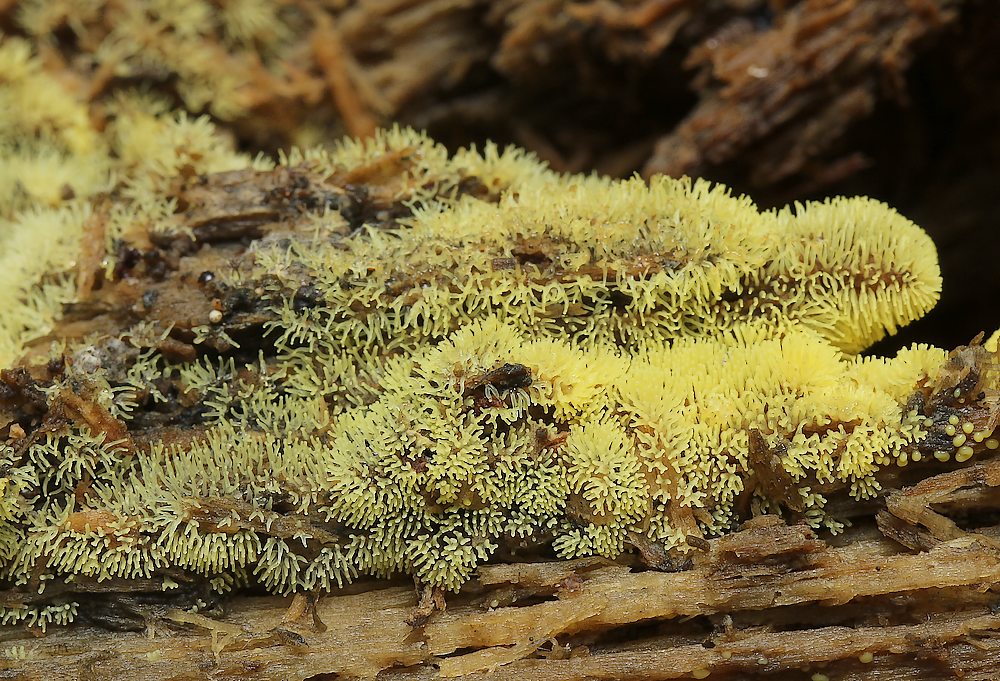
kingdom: Protozoa
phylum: Mycetozoa
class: Protosteliomycetes
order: Ceratiomyxales
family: Ceratiomyxaceae
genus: Ceratiomyxa
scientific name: Ceratiomyxa fruticulosa
